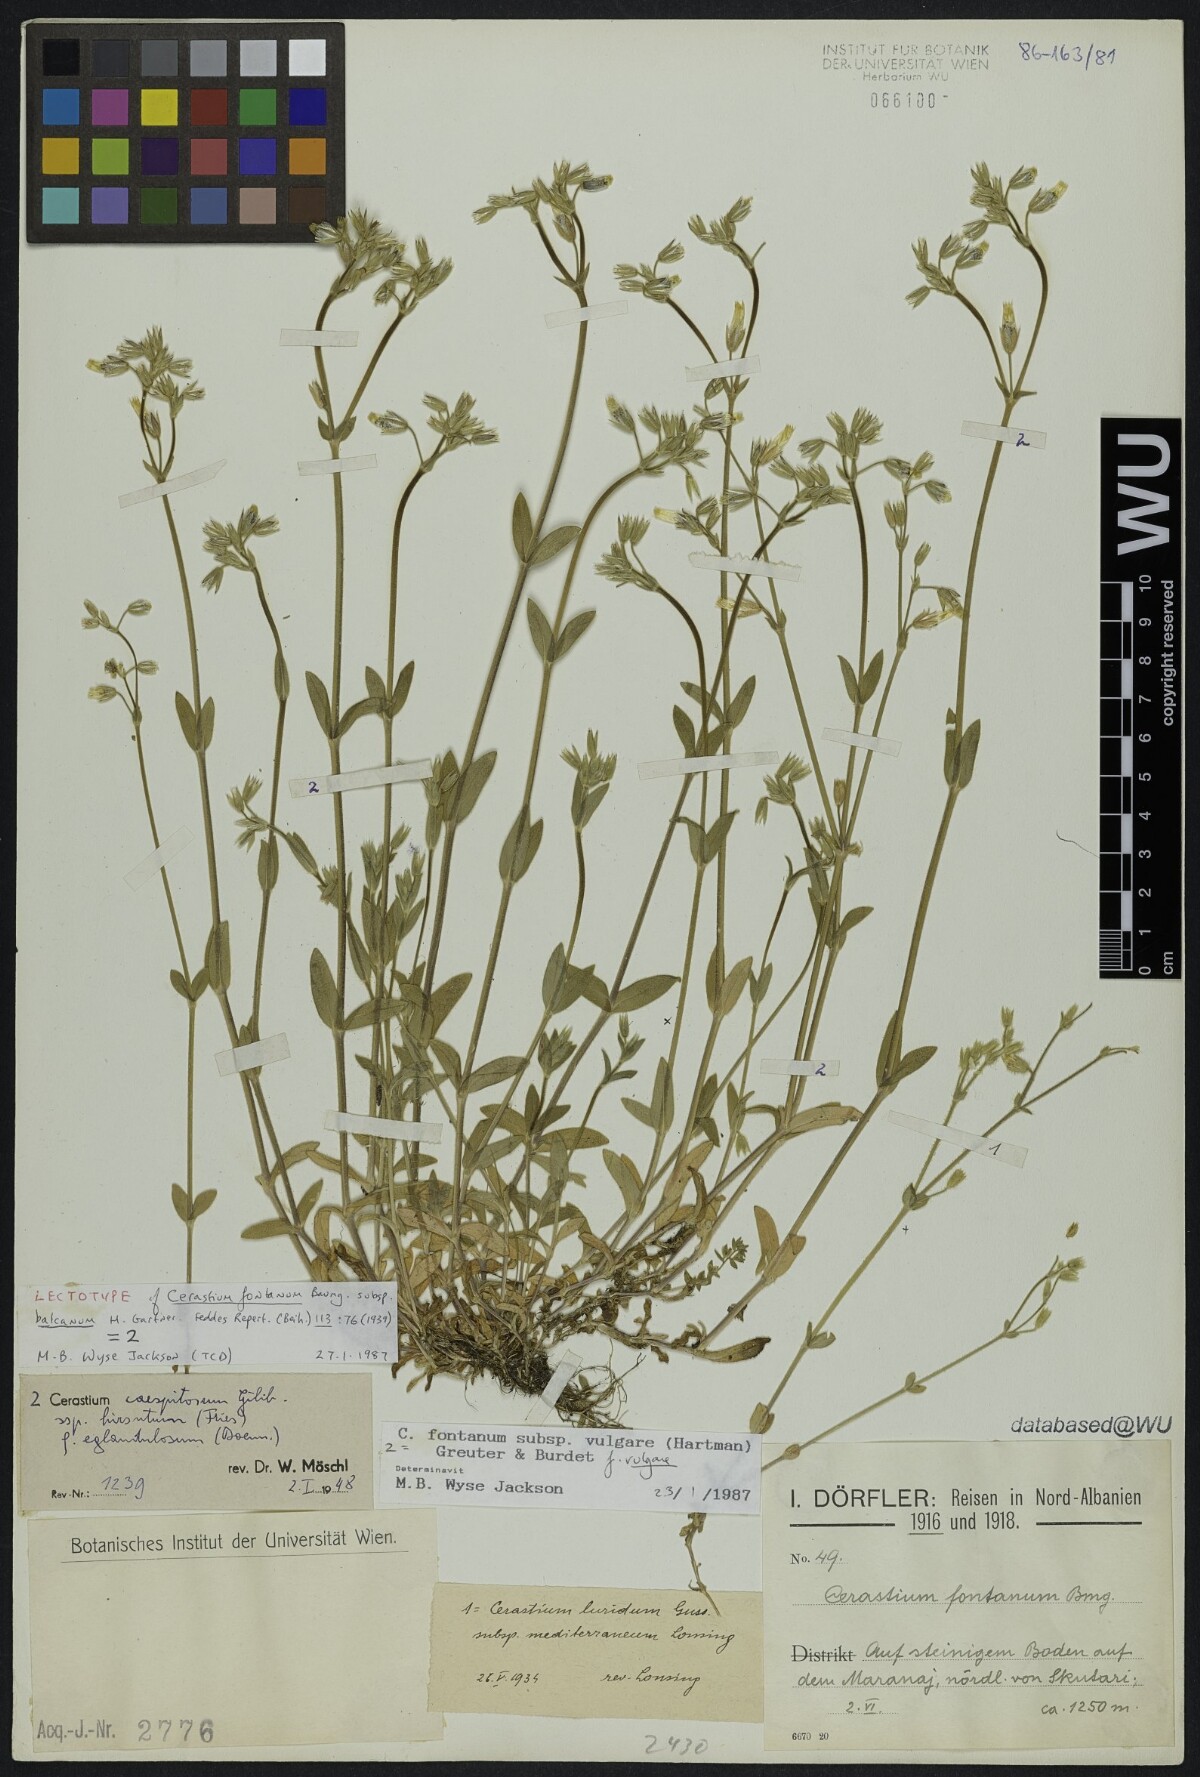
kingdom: Plantae
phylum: Tracheophyta
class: Magnoliopsida
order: Caryophyllales
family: Caryophyllaceae
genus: Cerastium
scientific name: Cerastium holosteoides
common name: Big chickweed
